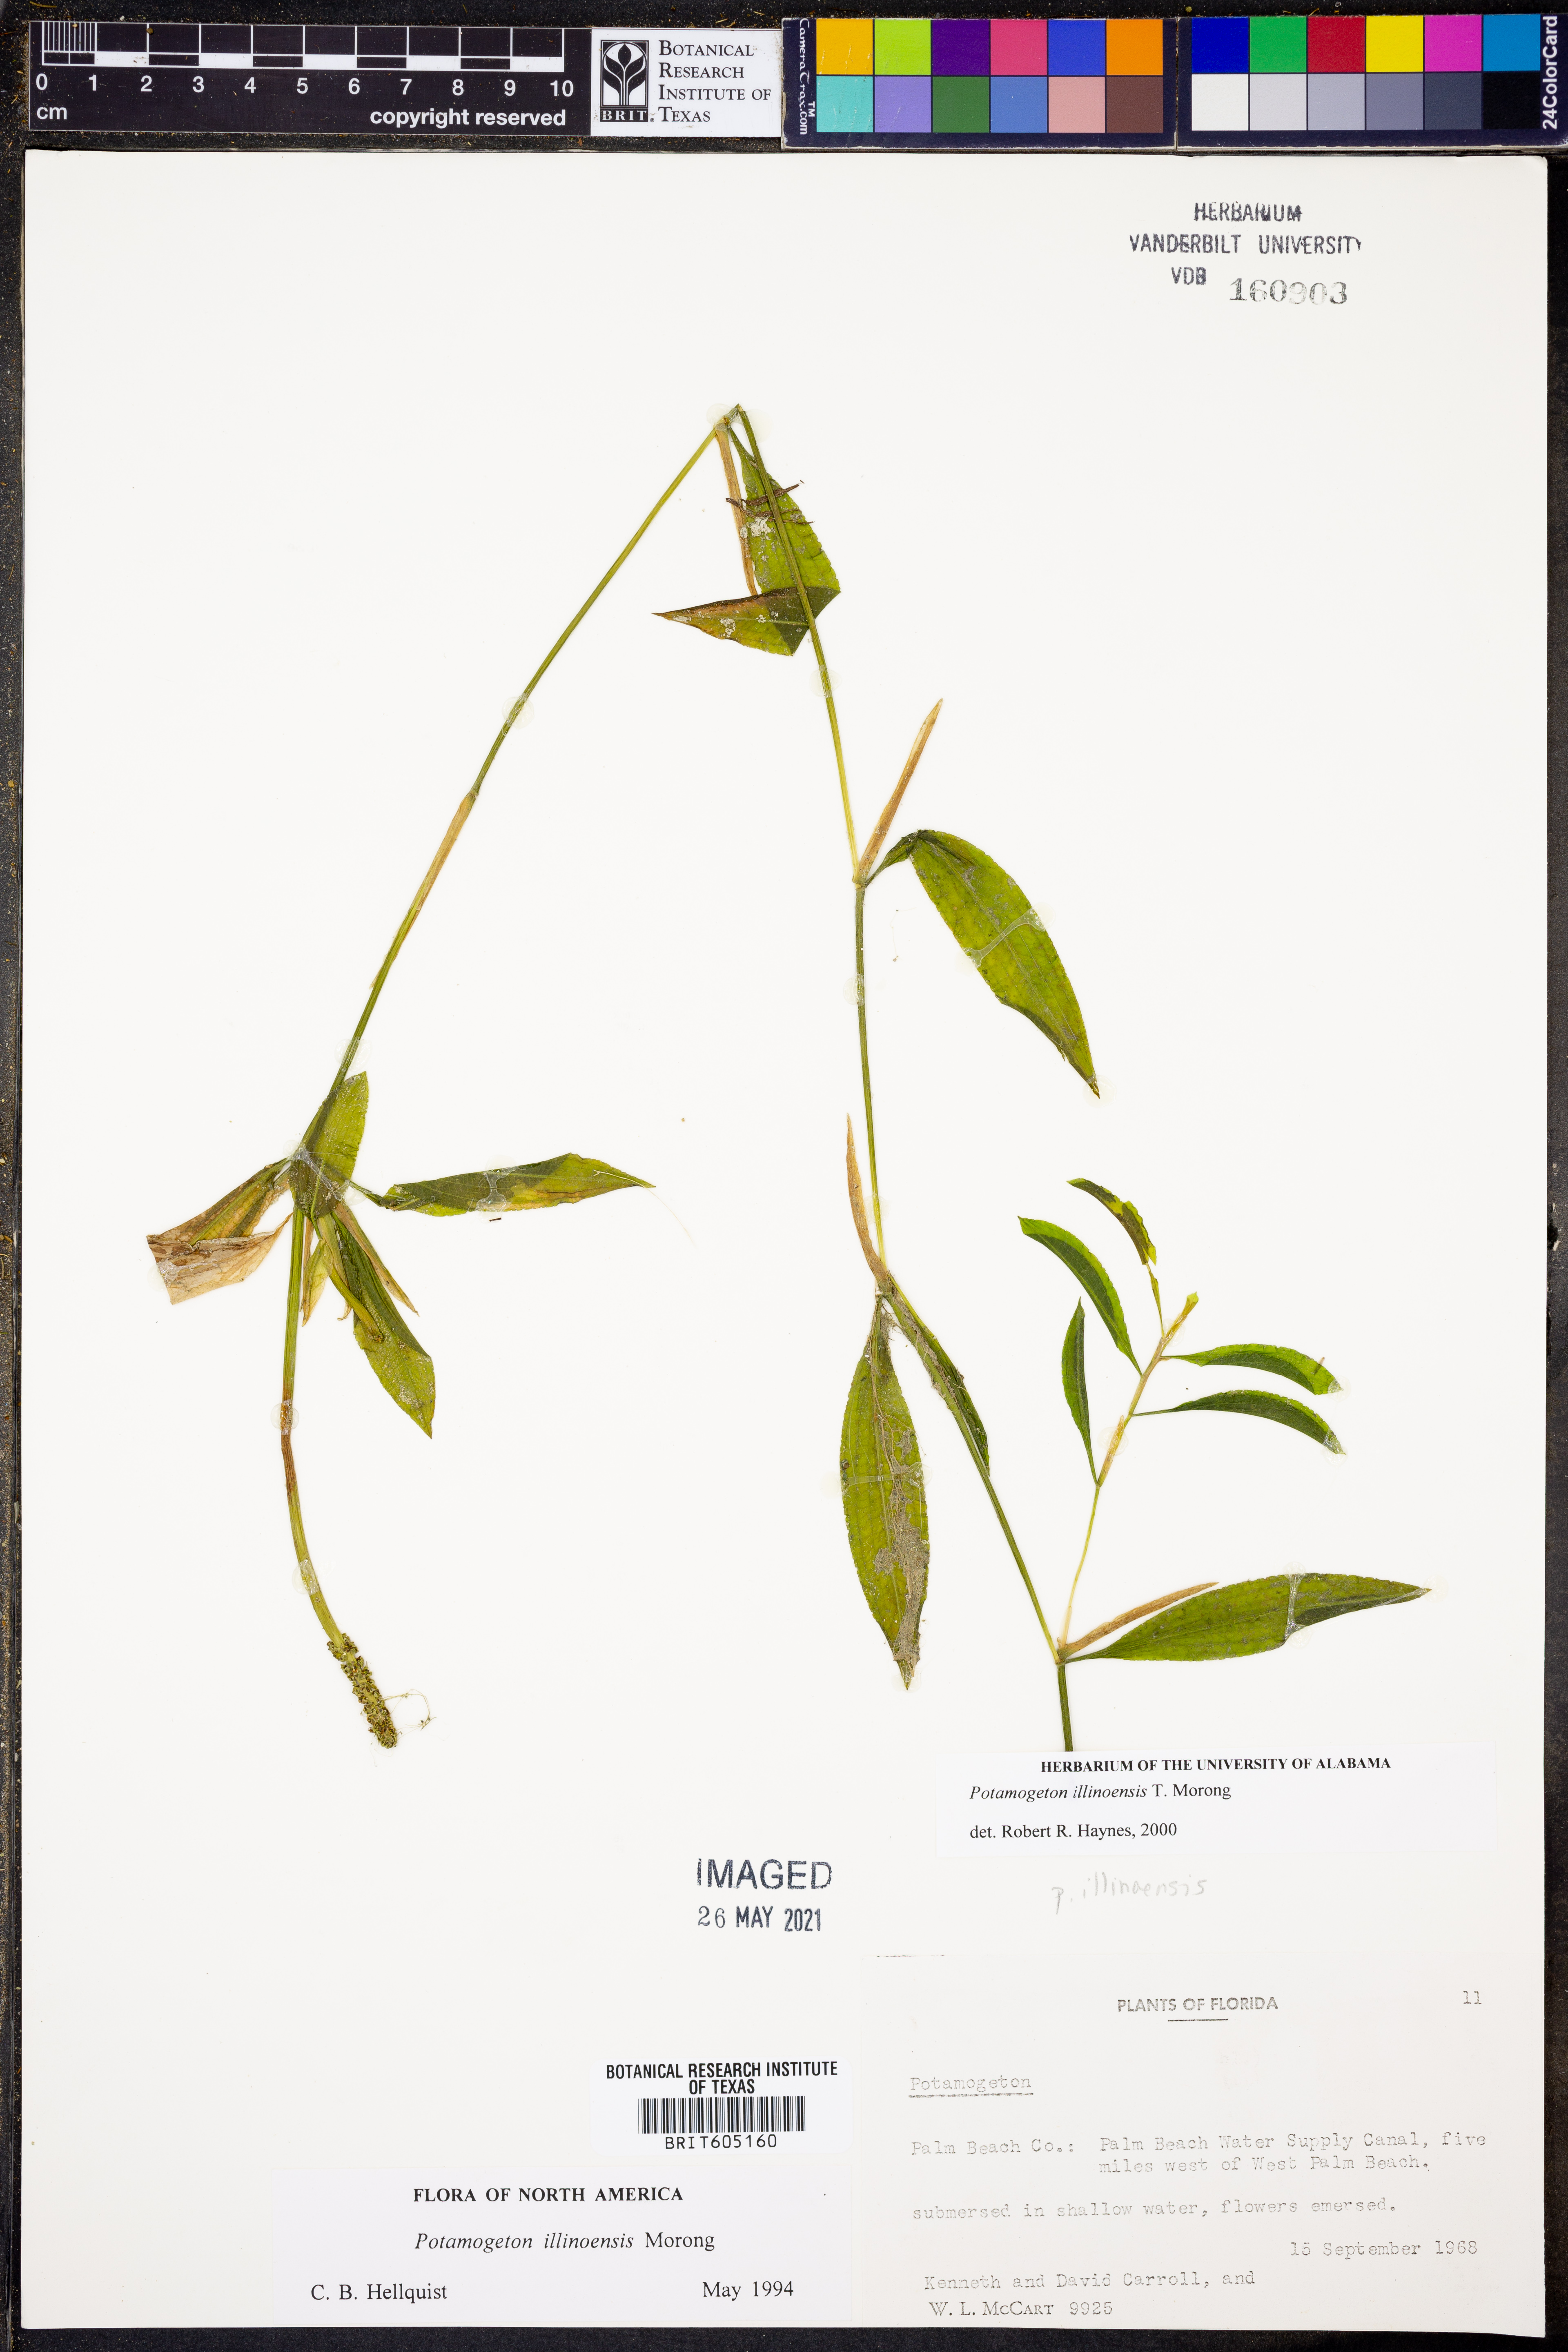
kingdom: Plantae
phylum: Tracheophyta
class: Liliopsida
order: Alismatales
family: Potamogetonaceae
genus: Potamogeton
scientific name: Potamogeton illinoensis
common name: Illinois pondweed
